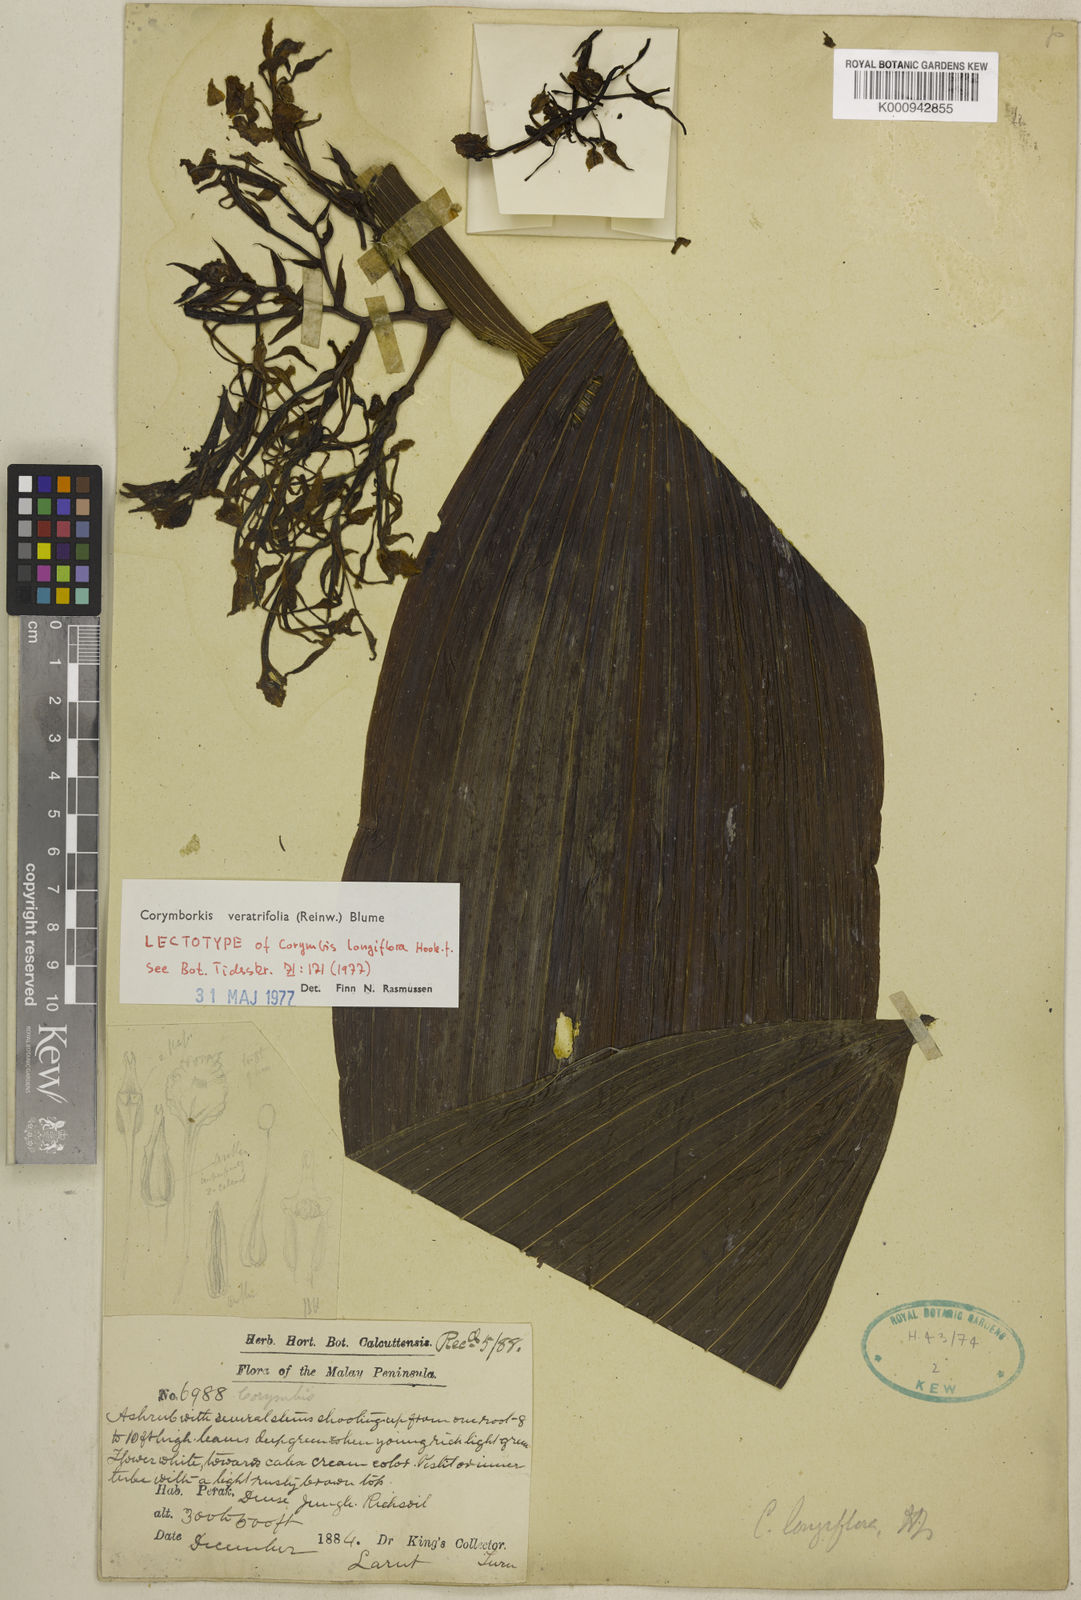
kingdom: Plantae
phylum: Tracheophyta
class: Liliopsida
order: Asparagales
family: Orchidaceae
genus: Corymborkis
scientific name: Corymborkis veratrifolia
